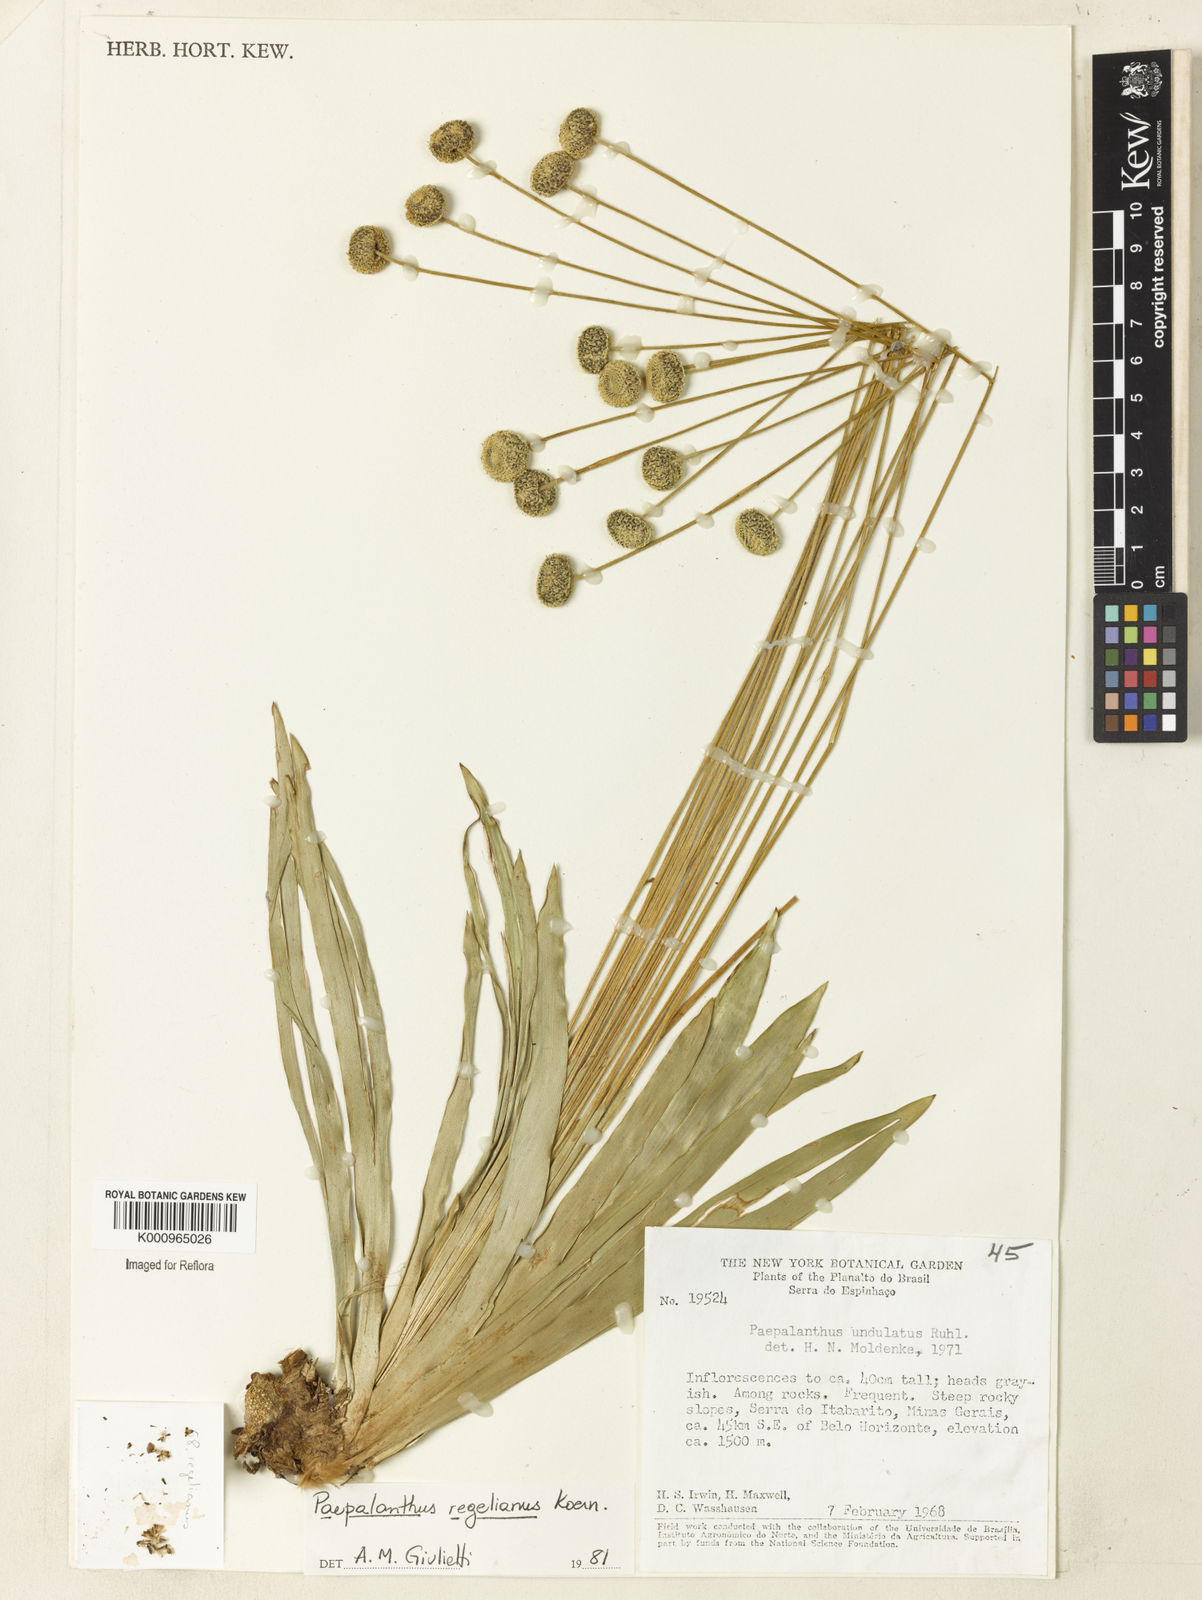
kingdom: Plantae
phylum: Tracheophyta
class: Liliopsida
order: Poales
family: Eriocaulaceae
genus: Paepalanthus
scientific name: Paepalanthus
